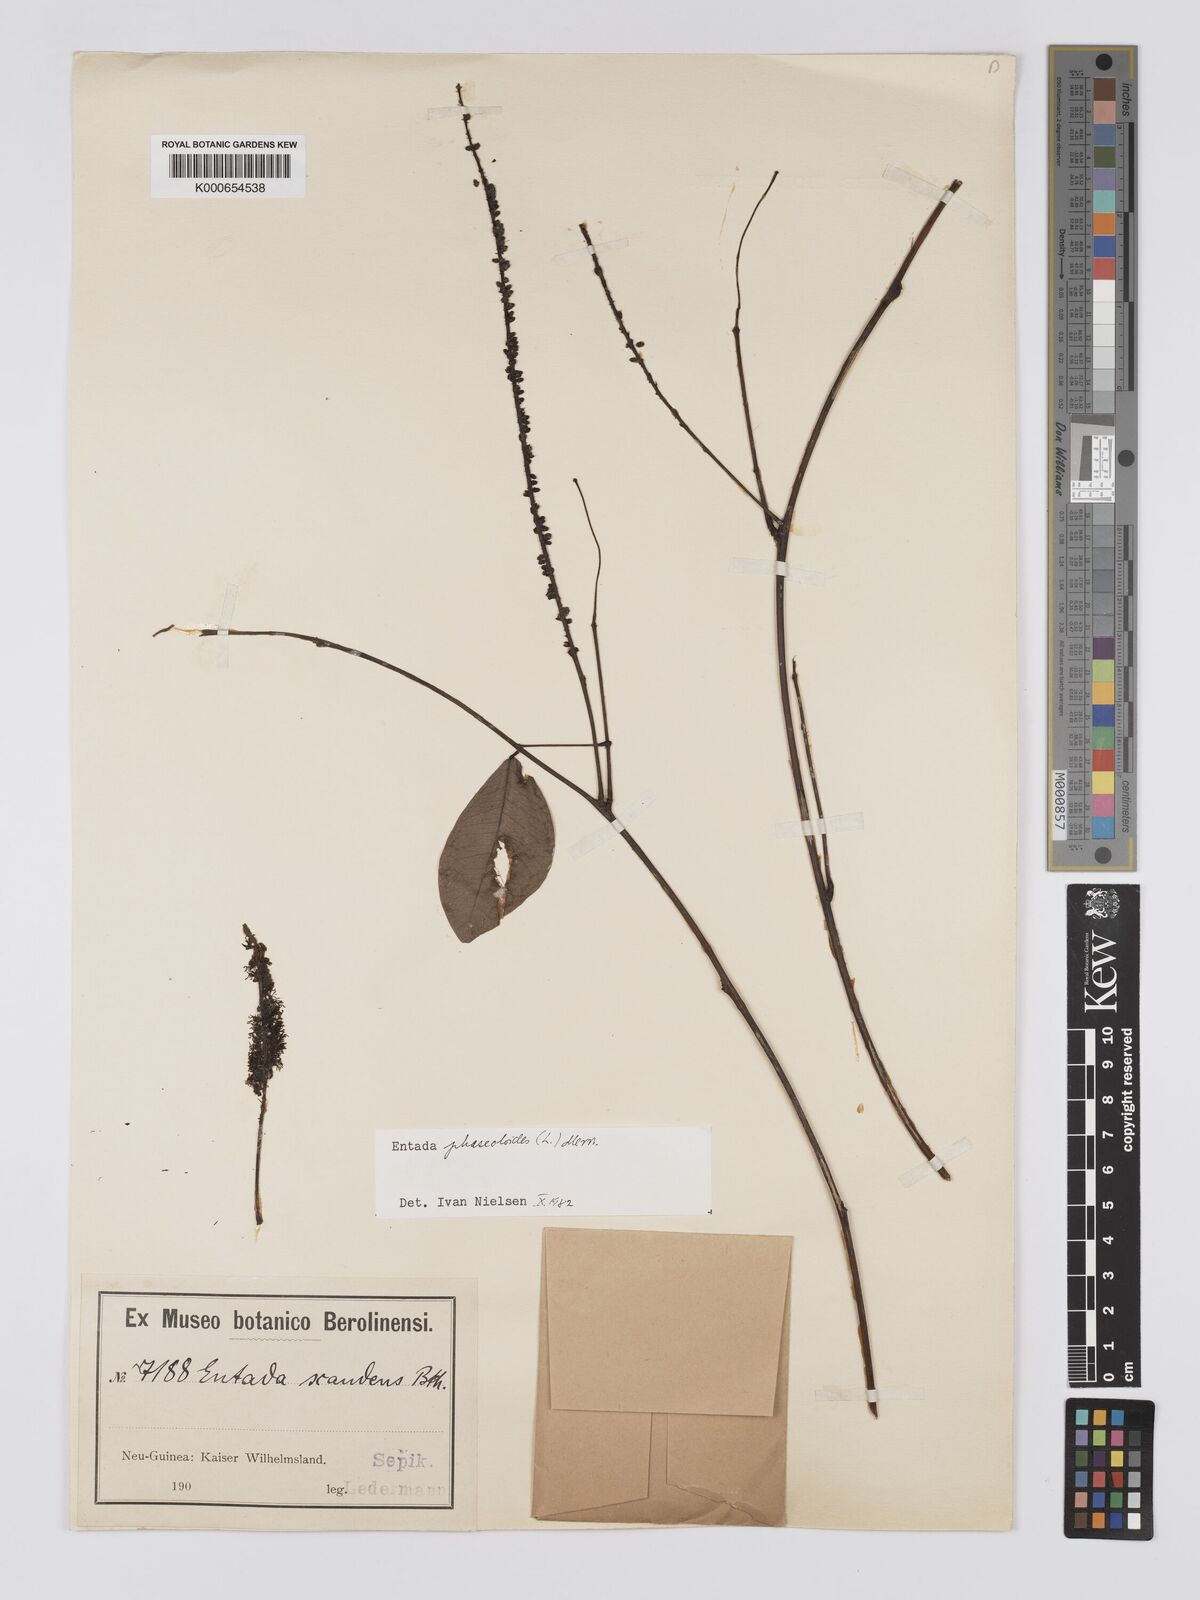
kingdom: Plantae
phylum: Tracheophyta
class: Magnoliopsida
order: Fabales
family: Fabaceae
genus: Entada
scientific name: Entada phaseoloides
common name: Matchbox-bean
